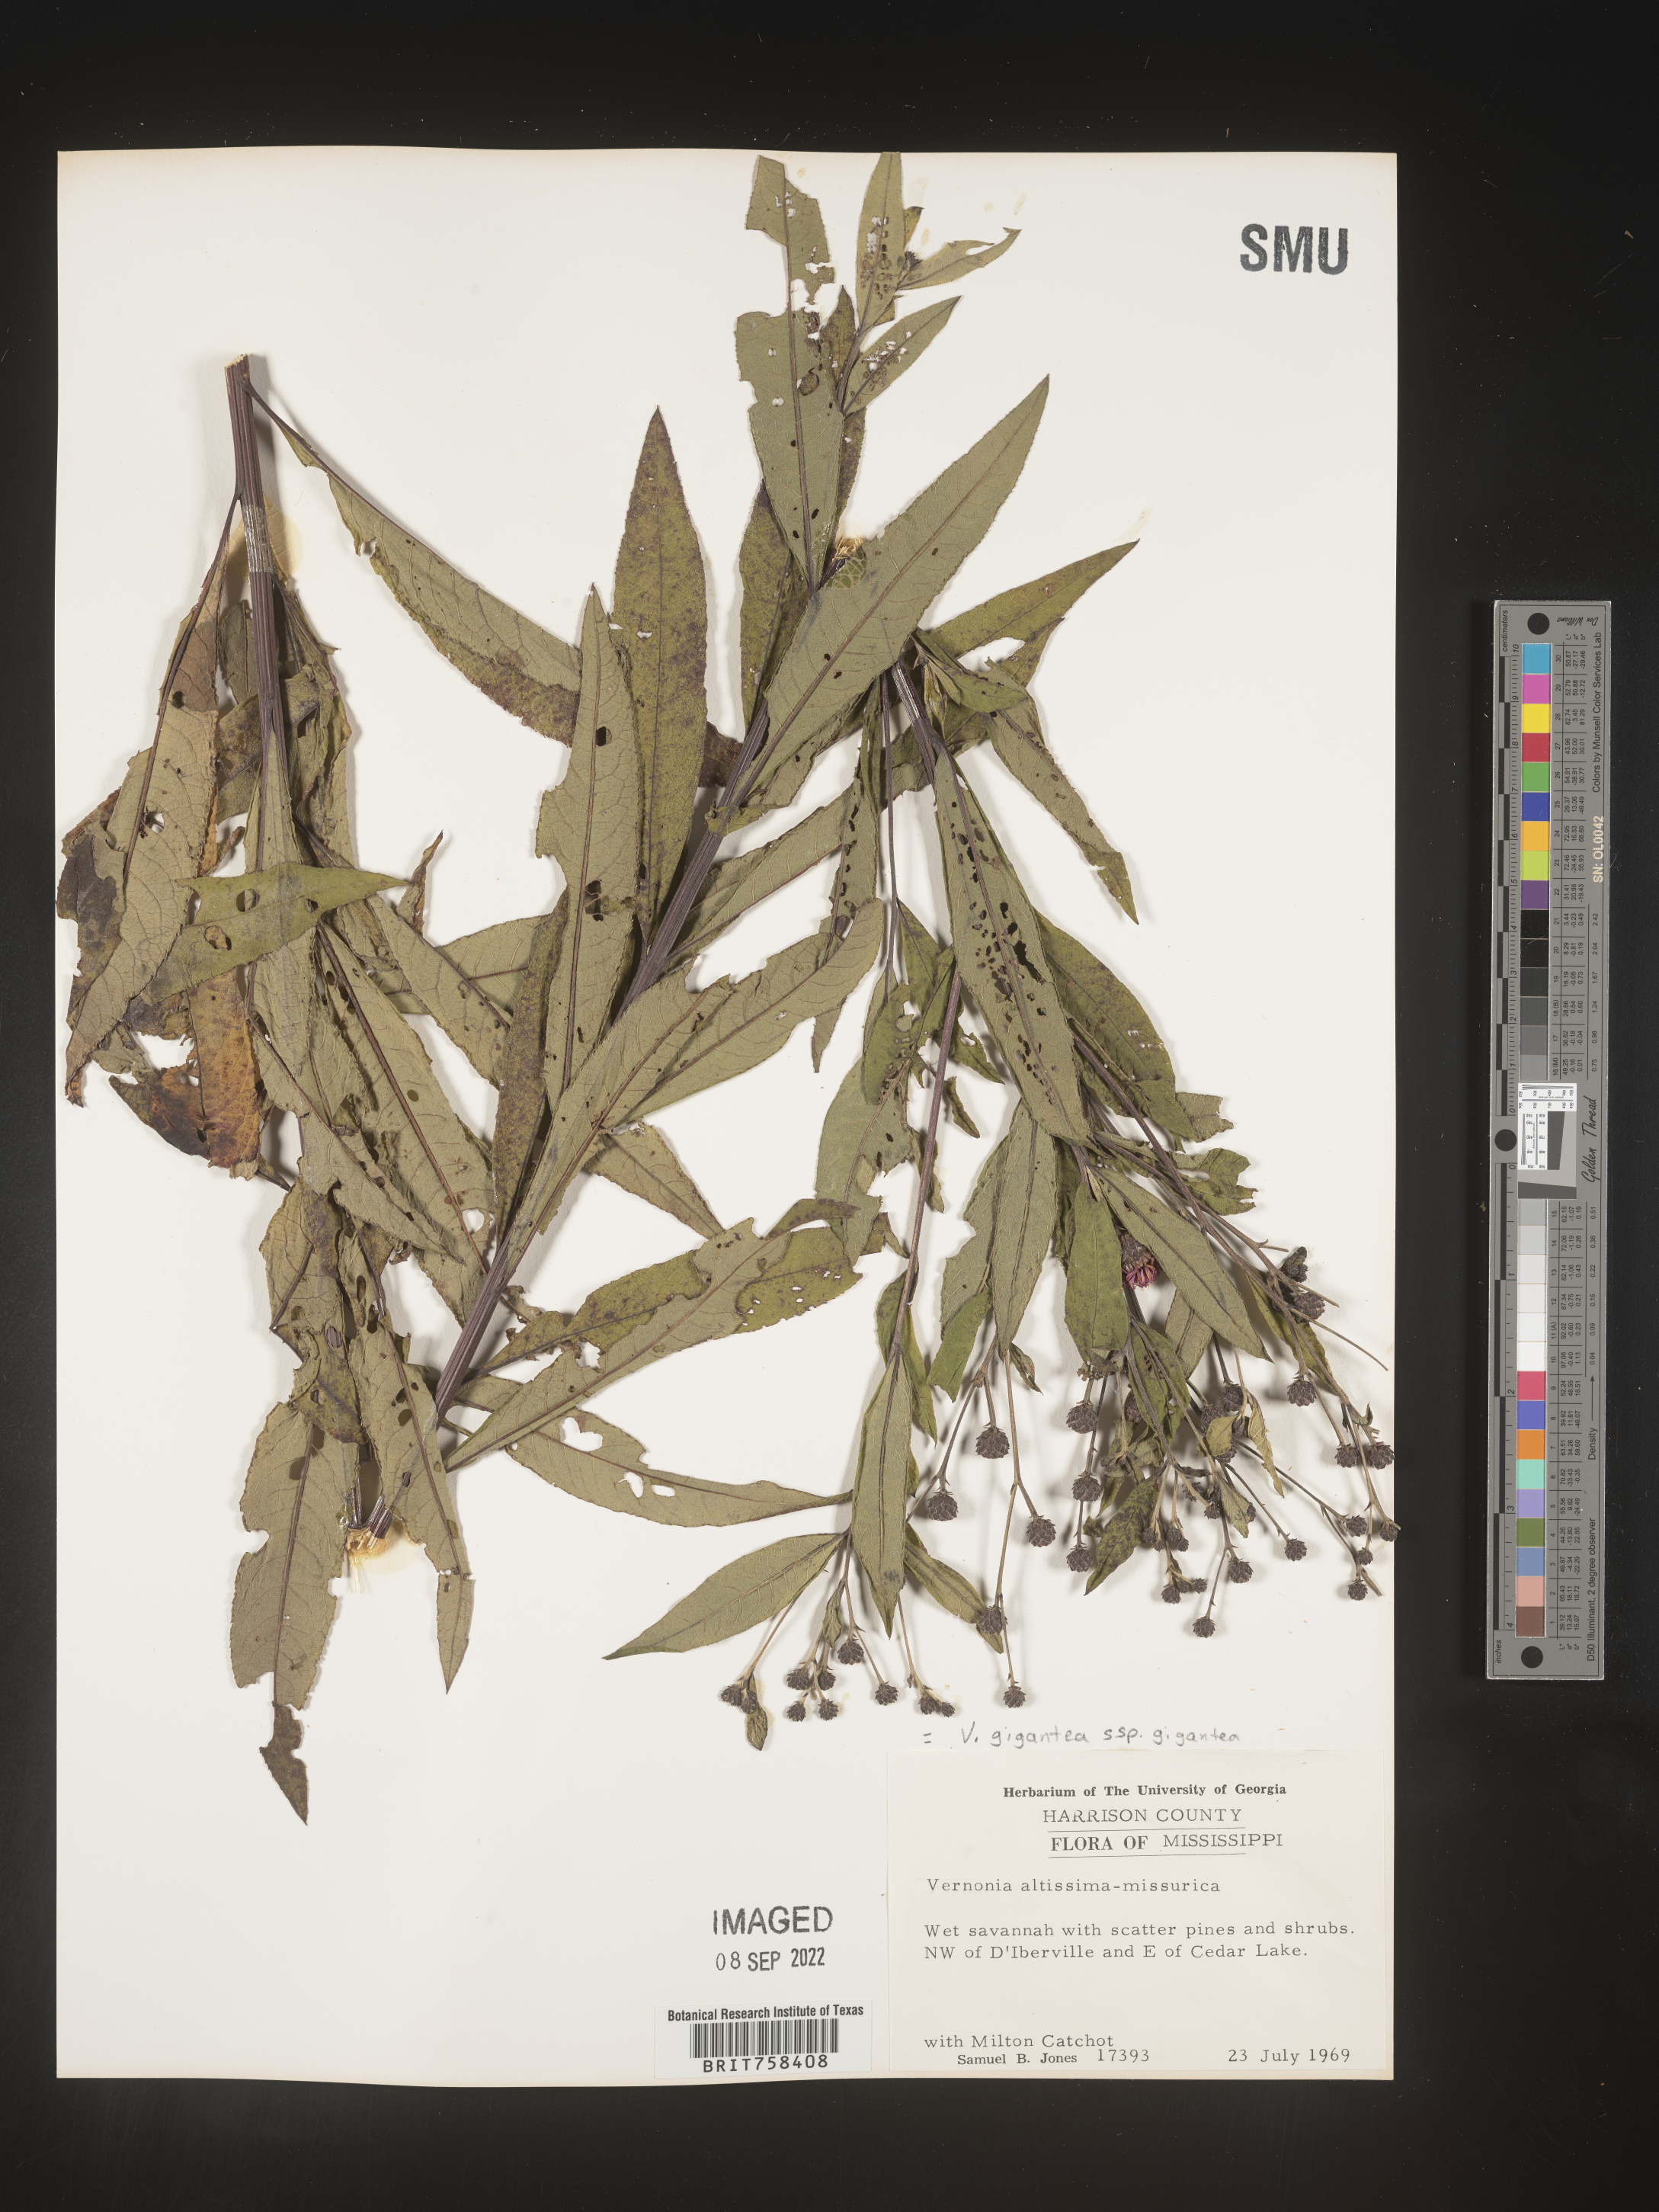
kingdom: Plantae
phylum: Tracheophyta
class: Magnoliopsida
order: Asterales
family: Asteraceae
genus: Vernonia
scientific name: Vernonia gigantea
